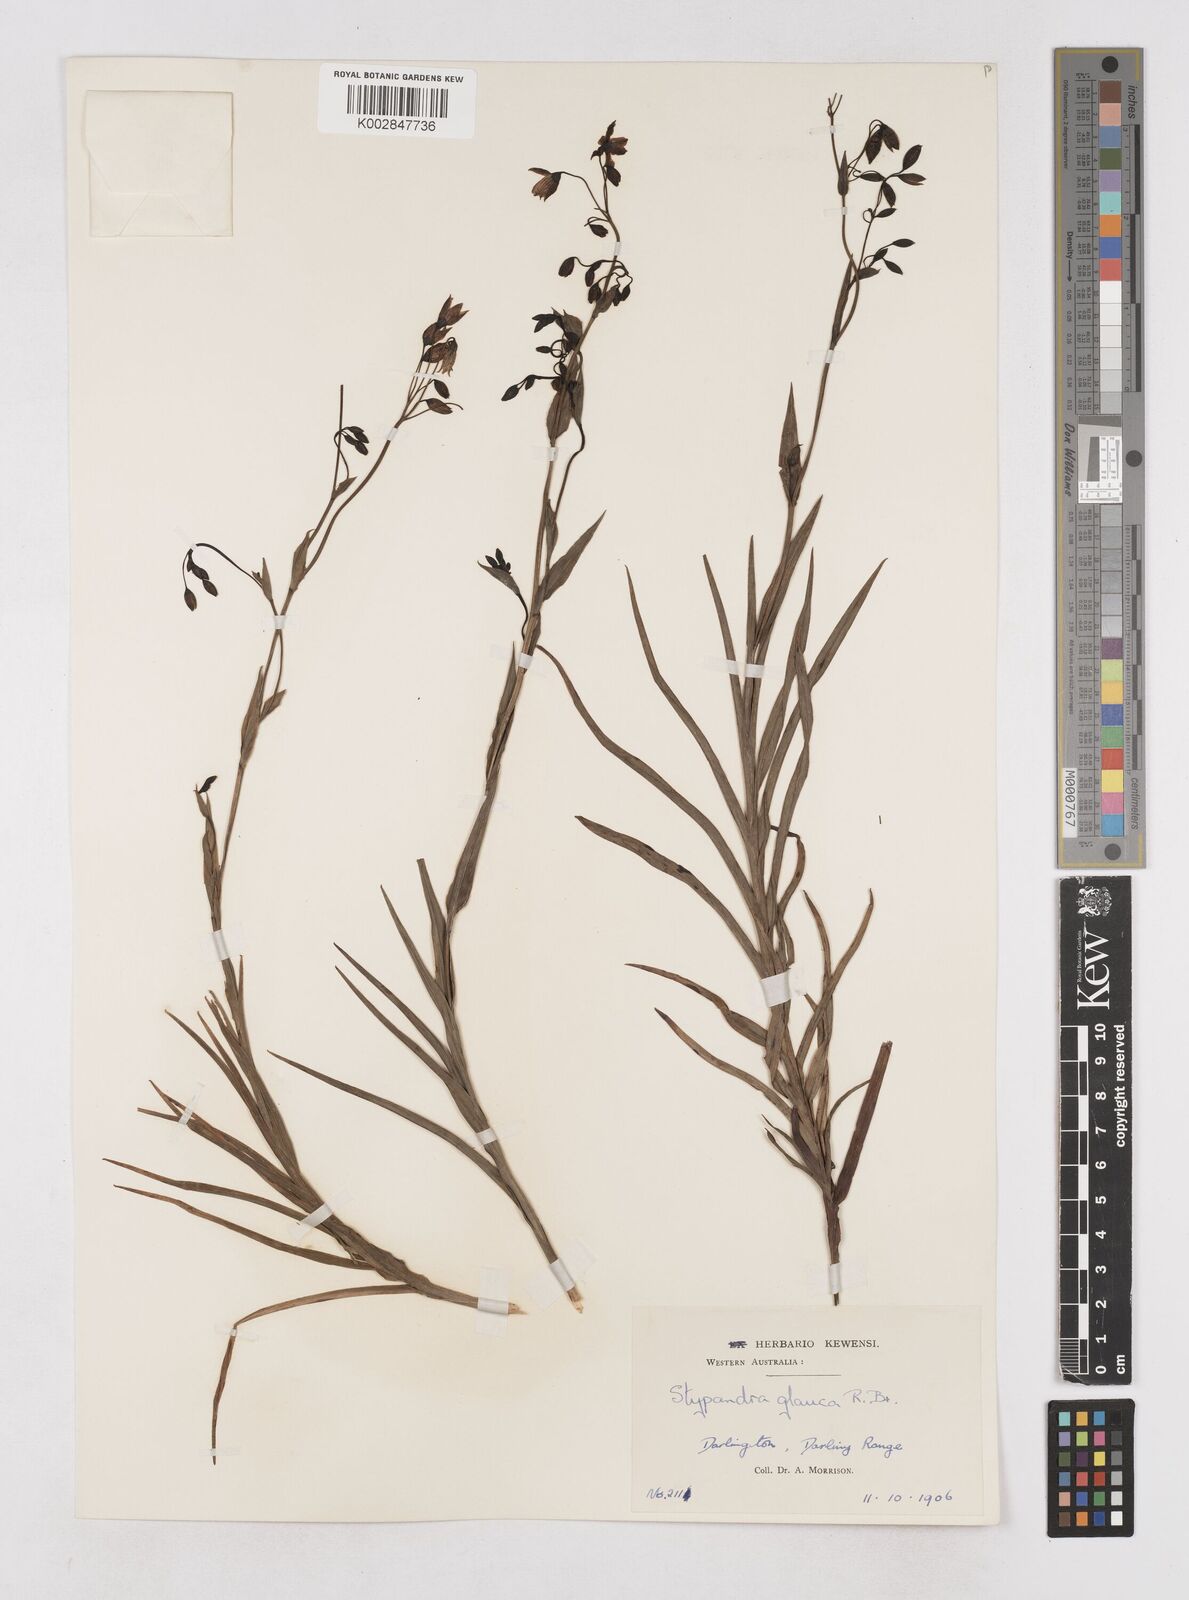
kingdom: Plantae
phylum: Tracheophyta
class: Liliopsida
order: Asparagales
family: Asphodelaceae
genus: Stypandra
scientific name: Stypandra glauca
